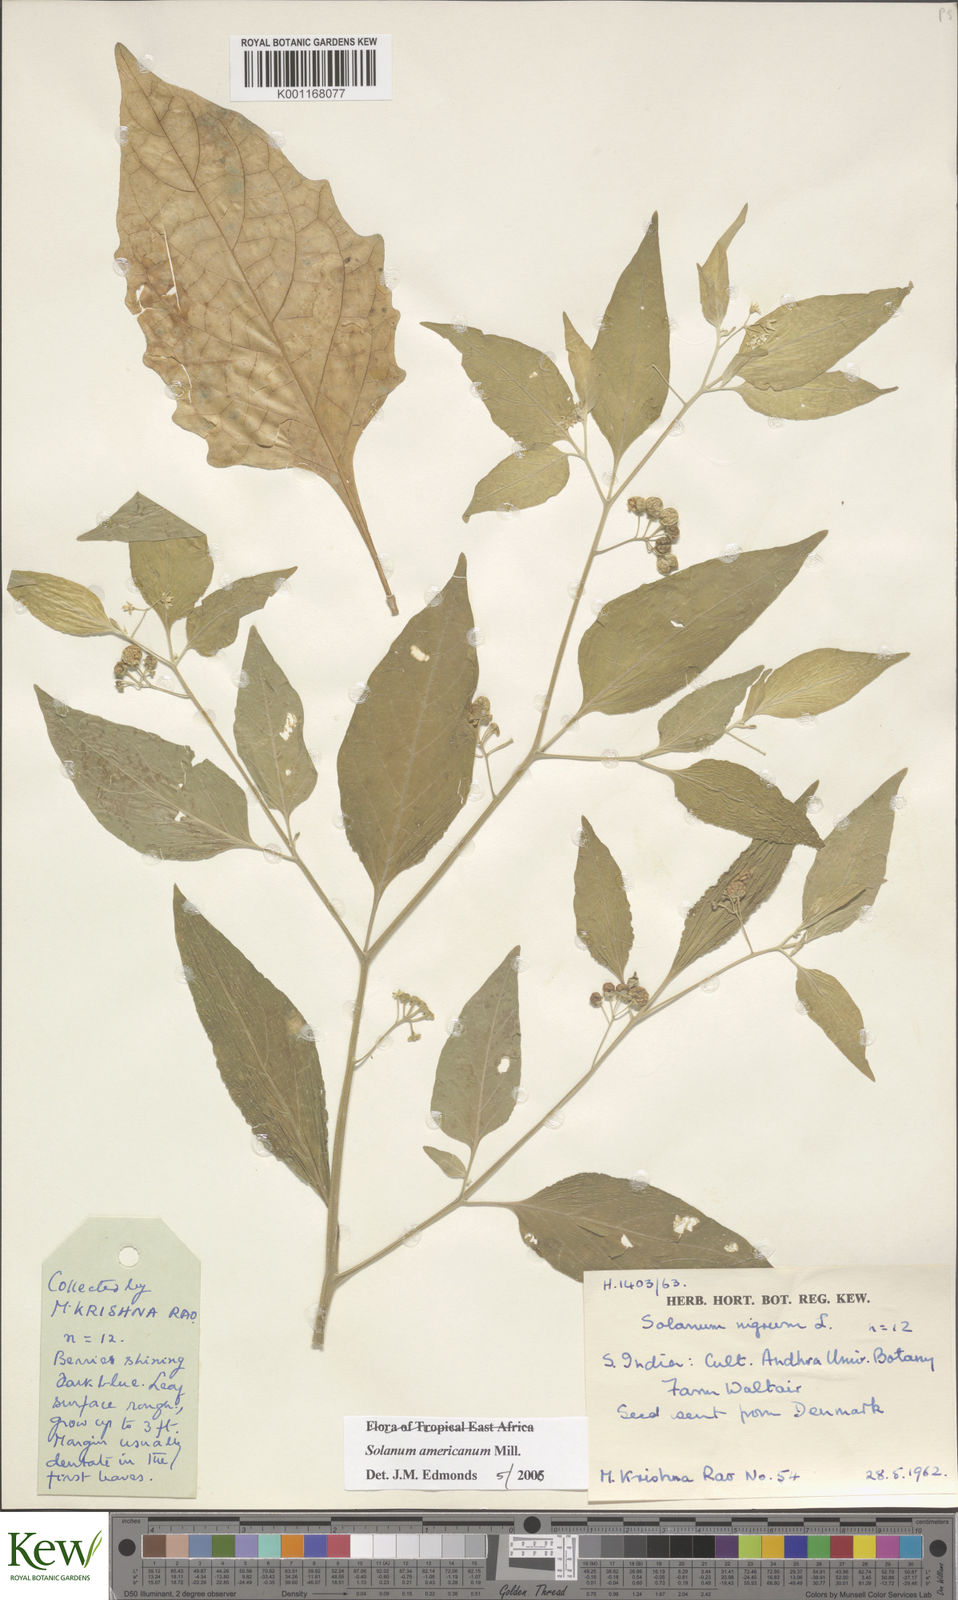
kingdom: Plantae
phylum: Tracheophyta
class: Magnoliopsida
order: Solanales
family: Solanaceae
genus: Solanum
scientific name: Solanum americanum
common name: American black nightshade
